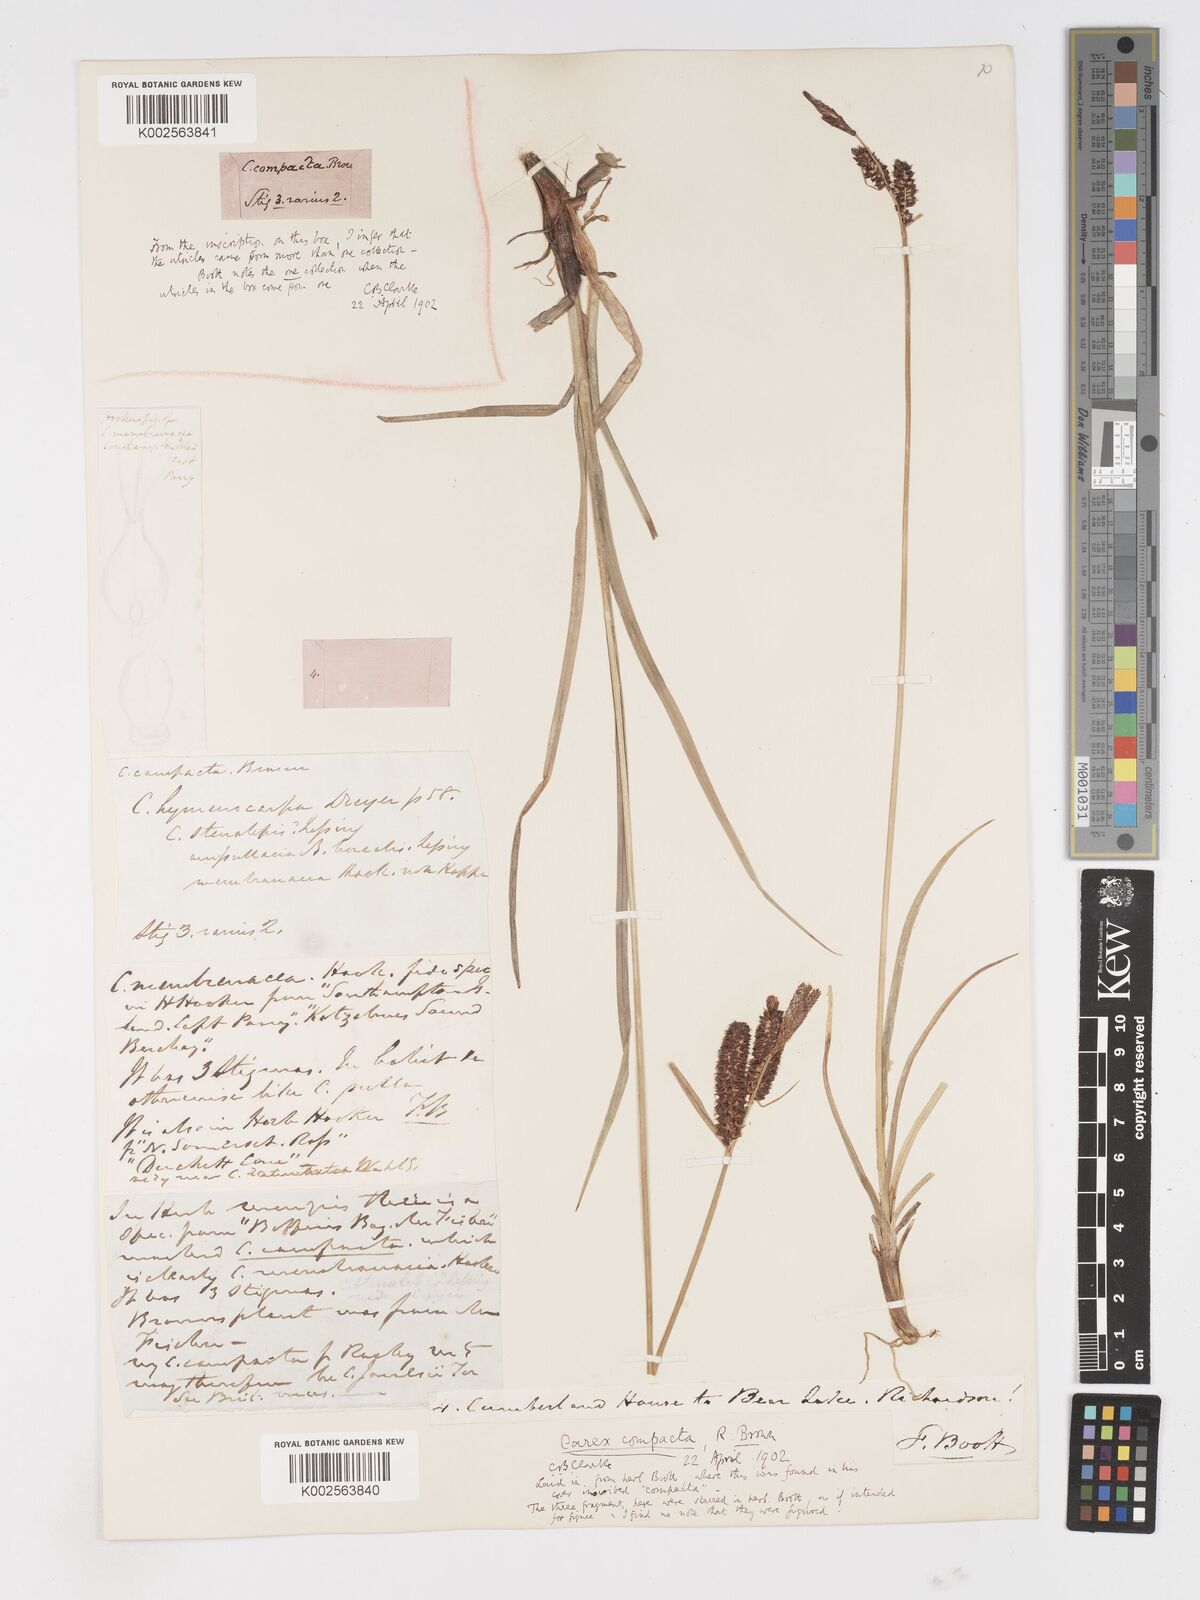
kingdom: Plantae
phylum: Tracheophyta
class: Liliopsida
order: Poales
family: Cyperaceae
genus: Carex
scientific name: Carex membranacea
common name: Fragile sedge
